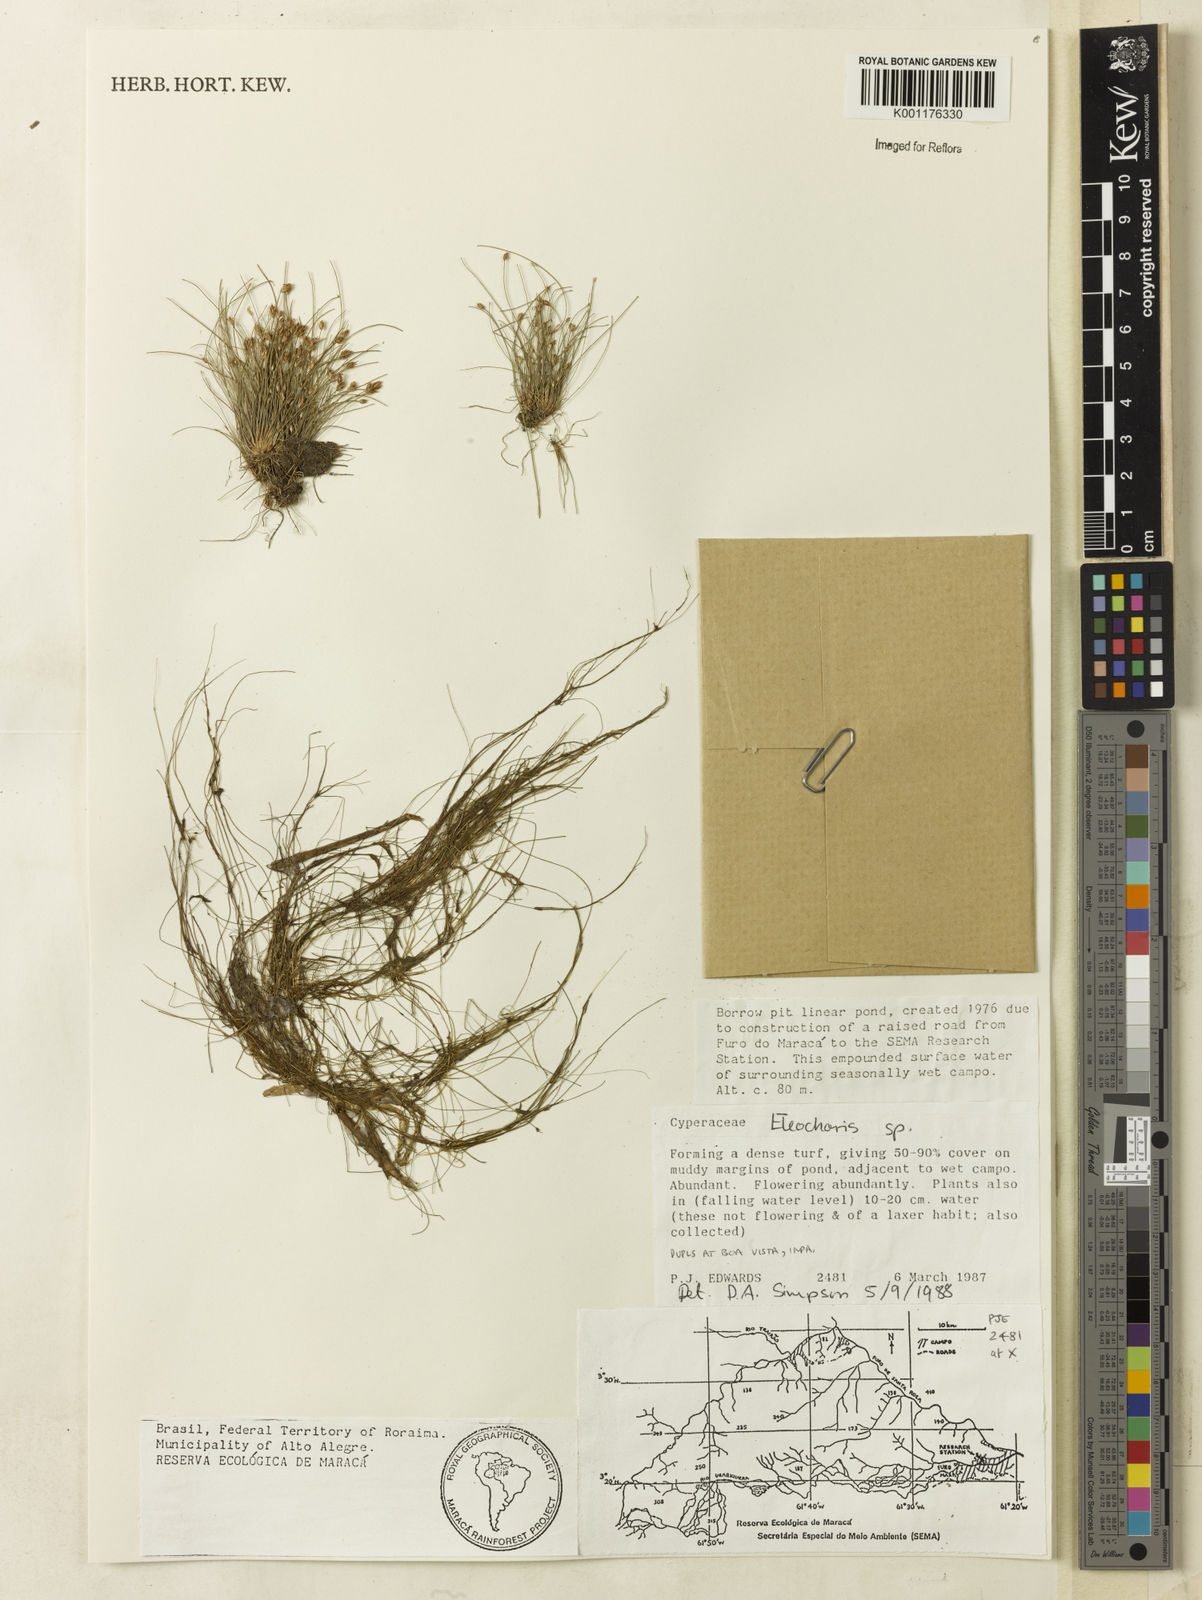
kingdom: Plantae
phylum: Tracheophyta
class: Liliopsida
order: Poales
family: Cyperaceae
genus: Eleocharis
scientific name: Eleocharis
